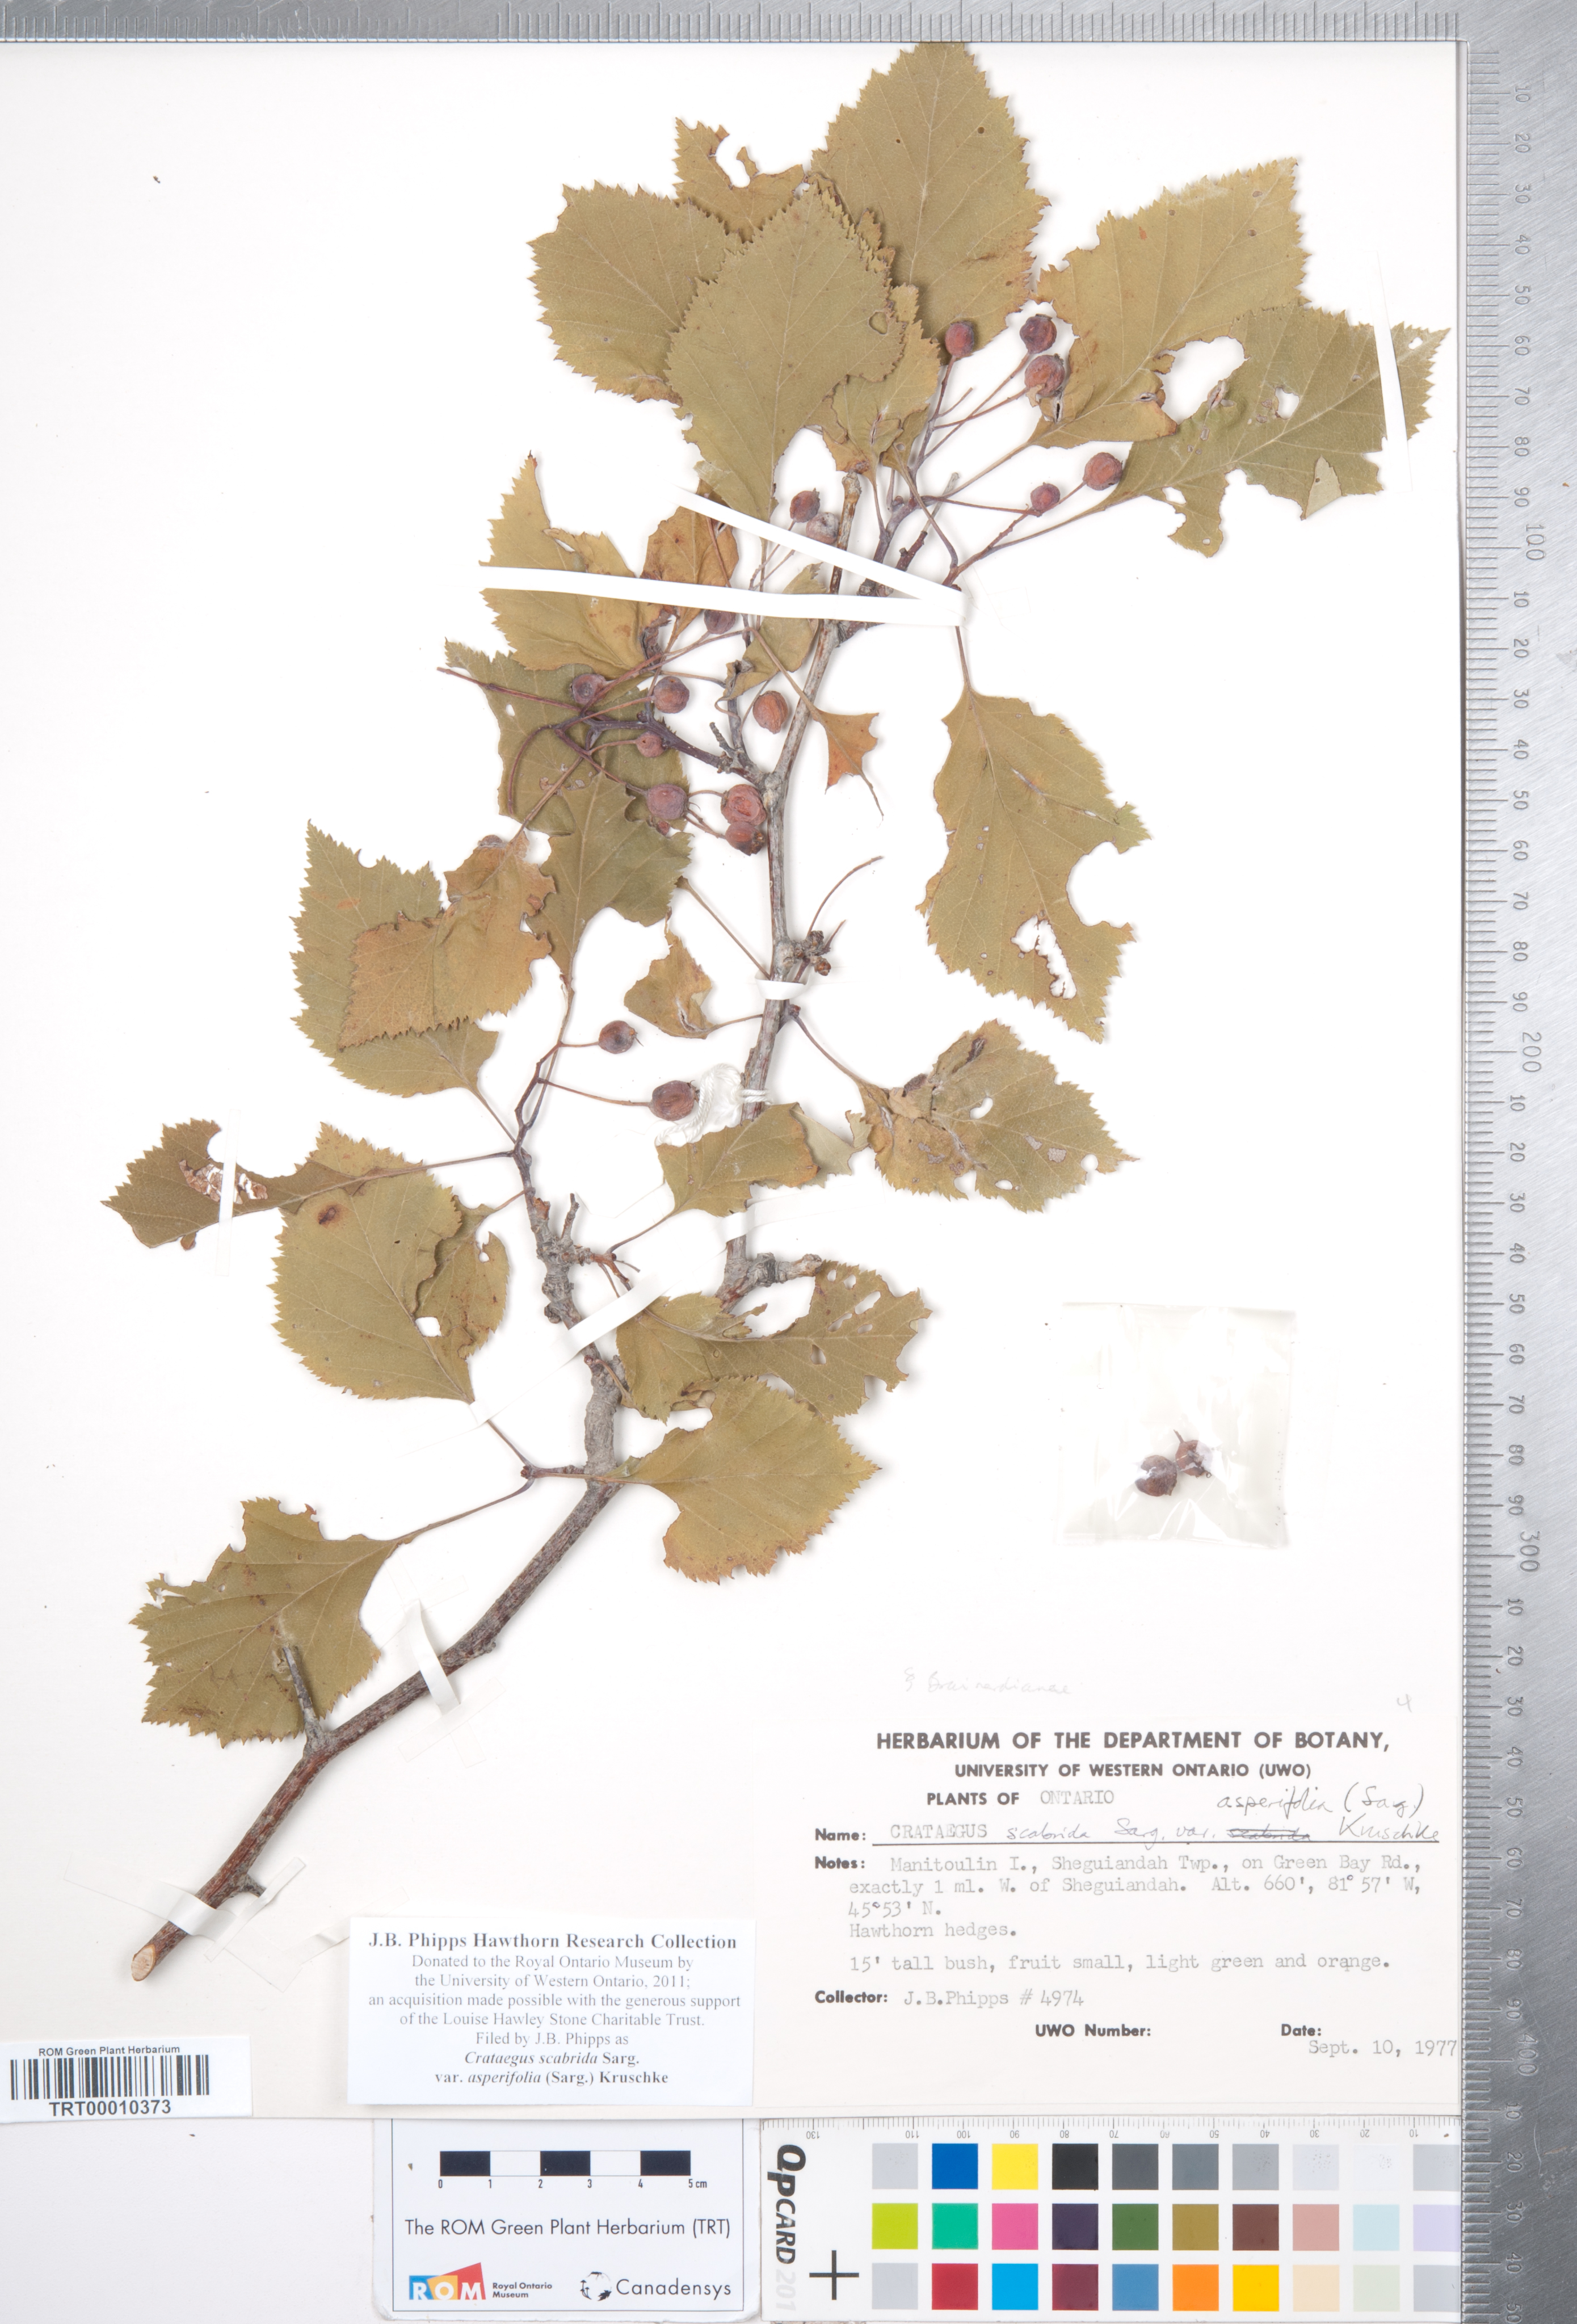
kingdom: Plantae
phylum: Tracheophyta
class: Magnoliopsida
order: Rosales
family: Rosaceae
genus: Crataegus
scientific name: Crataegus scabrida
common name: Rough hawthorn
